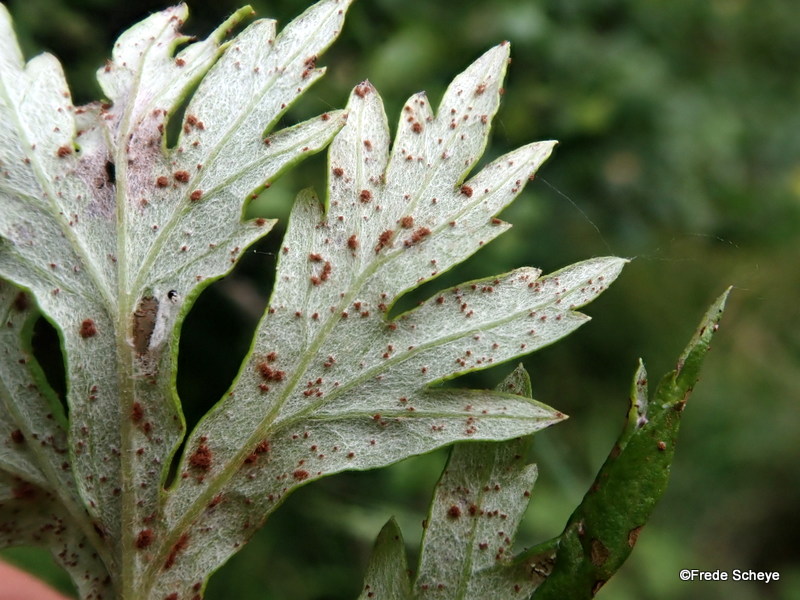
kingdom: Fungi
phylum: Basidiomycota
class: Pucciniomycetes
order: Pucciniales
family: Pucciniaceae
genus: Puccinia
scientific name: Puccinia tanaceti
